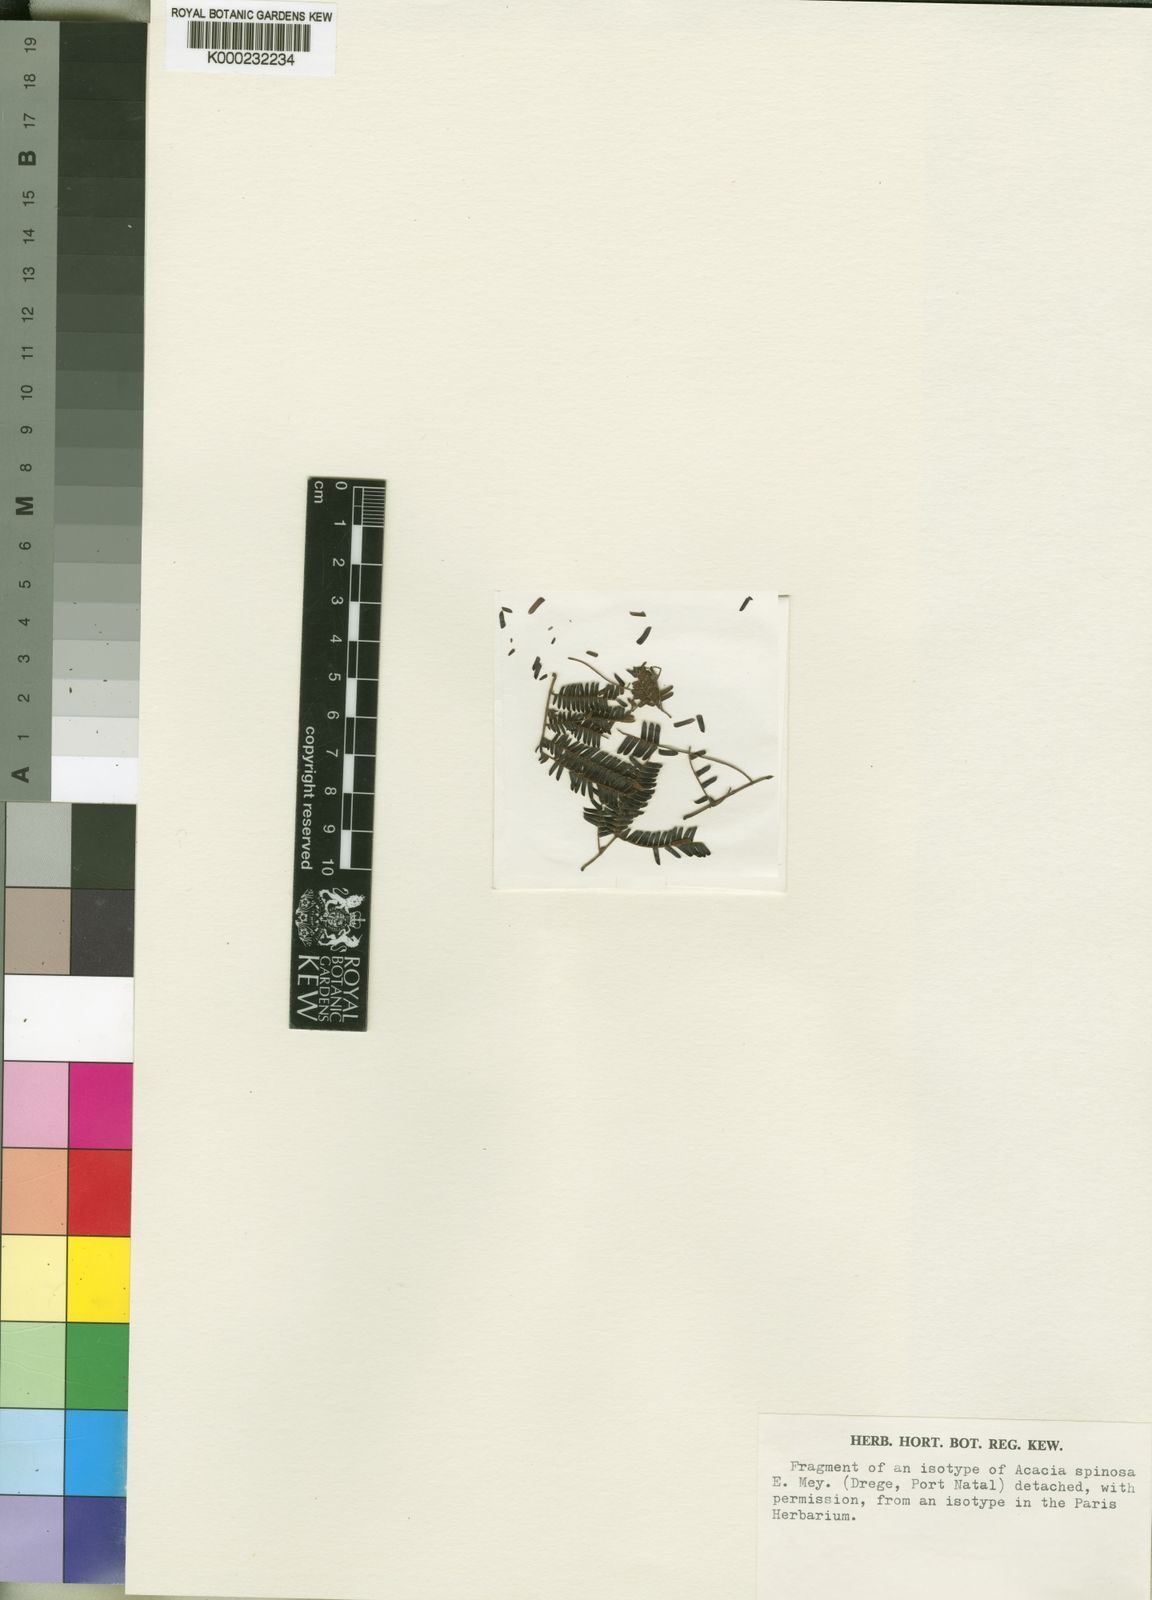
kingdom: Plantae
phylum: Tracheophyta
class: Magnoliopsida
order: Fabales
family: Fabaceae
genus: Dichrostachys
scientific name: Dichrostachys
